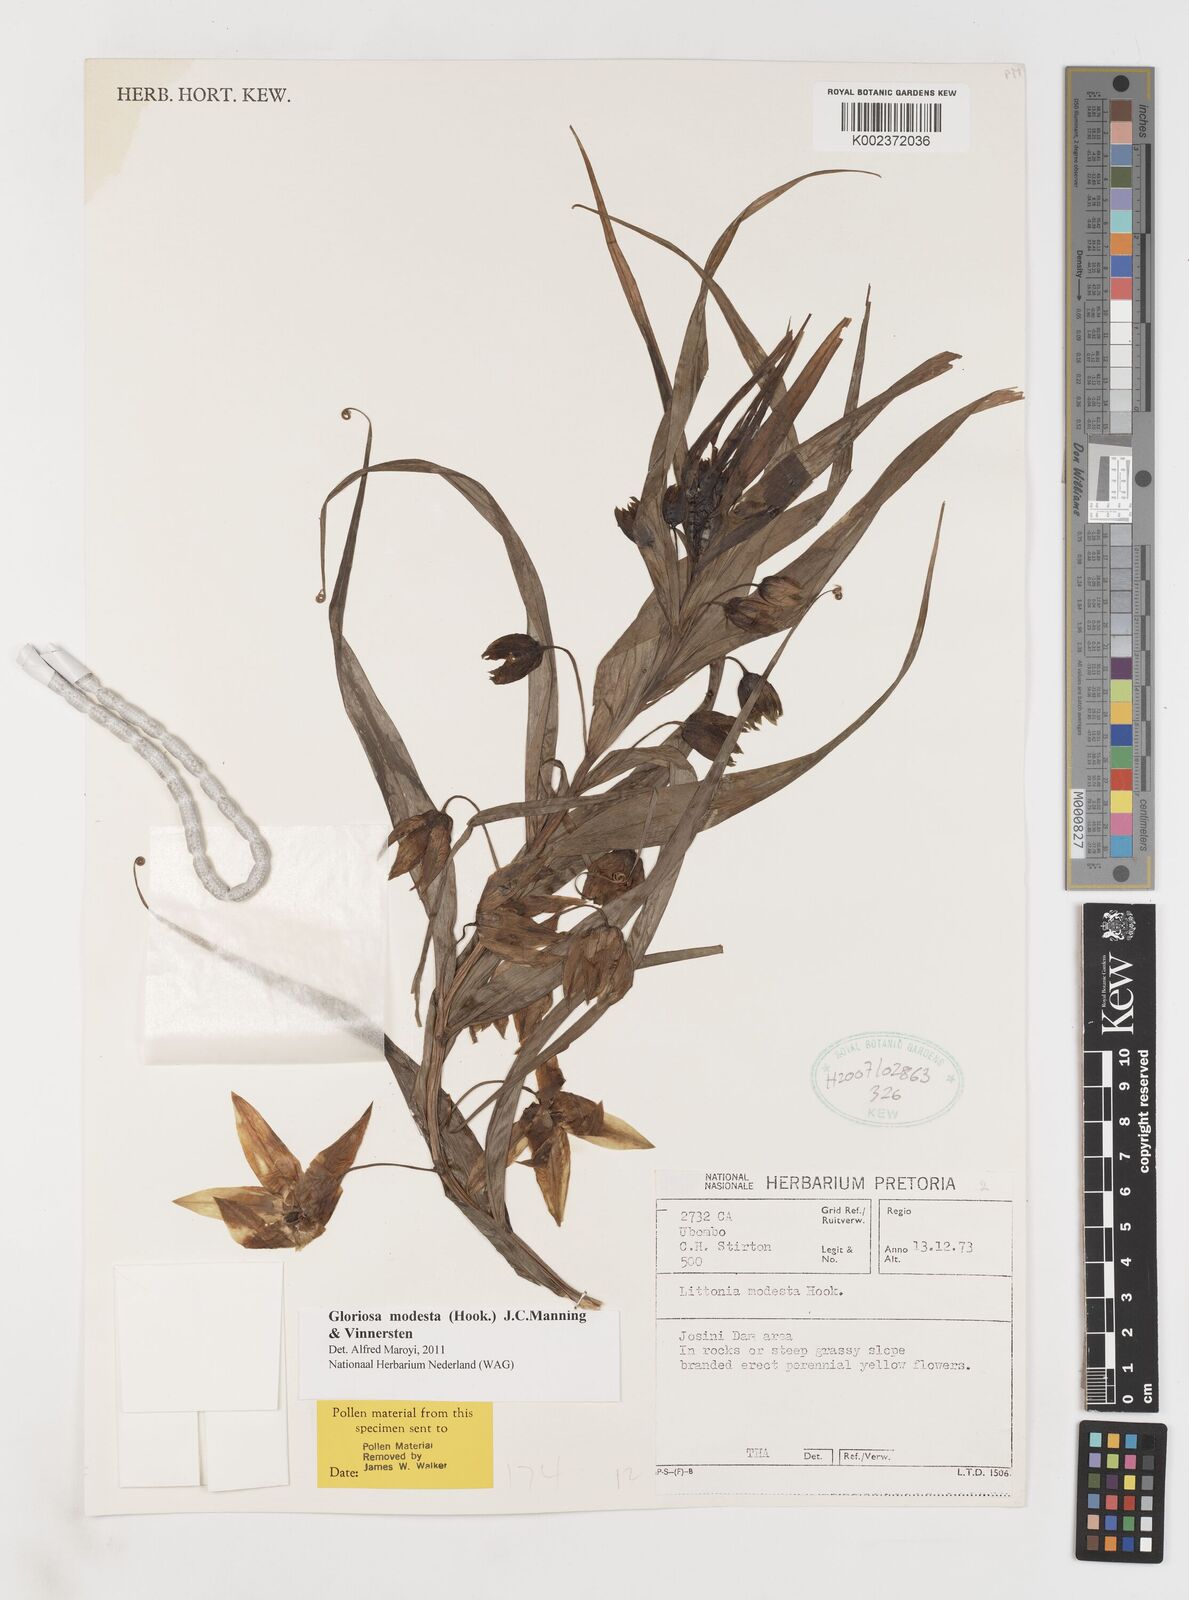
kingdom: Plantae
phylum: Tracheophyta
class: Liliopsida
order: Liliales
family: Colchicaceae
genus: Gloriosa
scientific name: Gloriosa modesta
